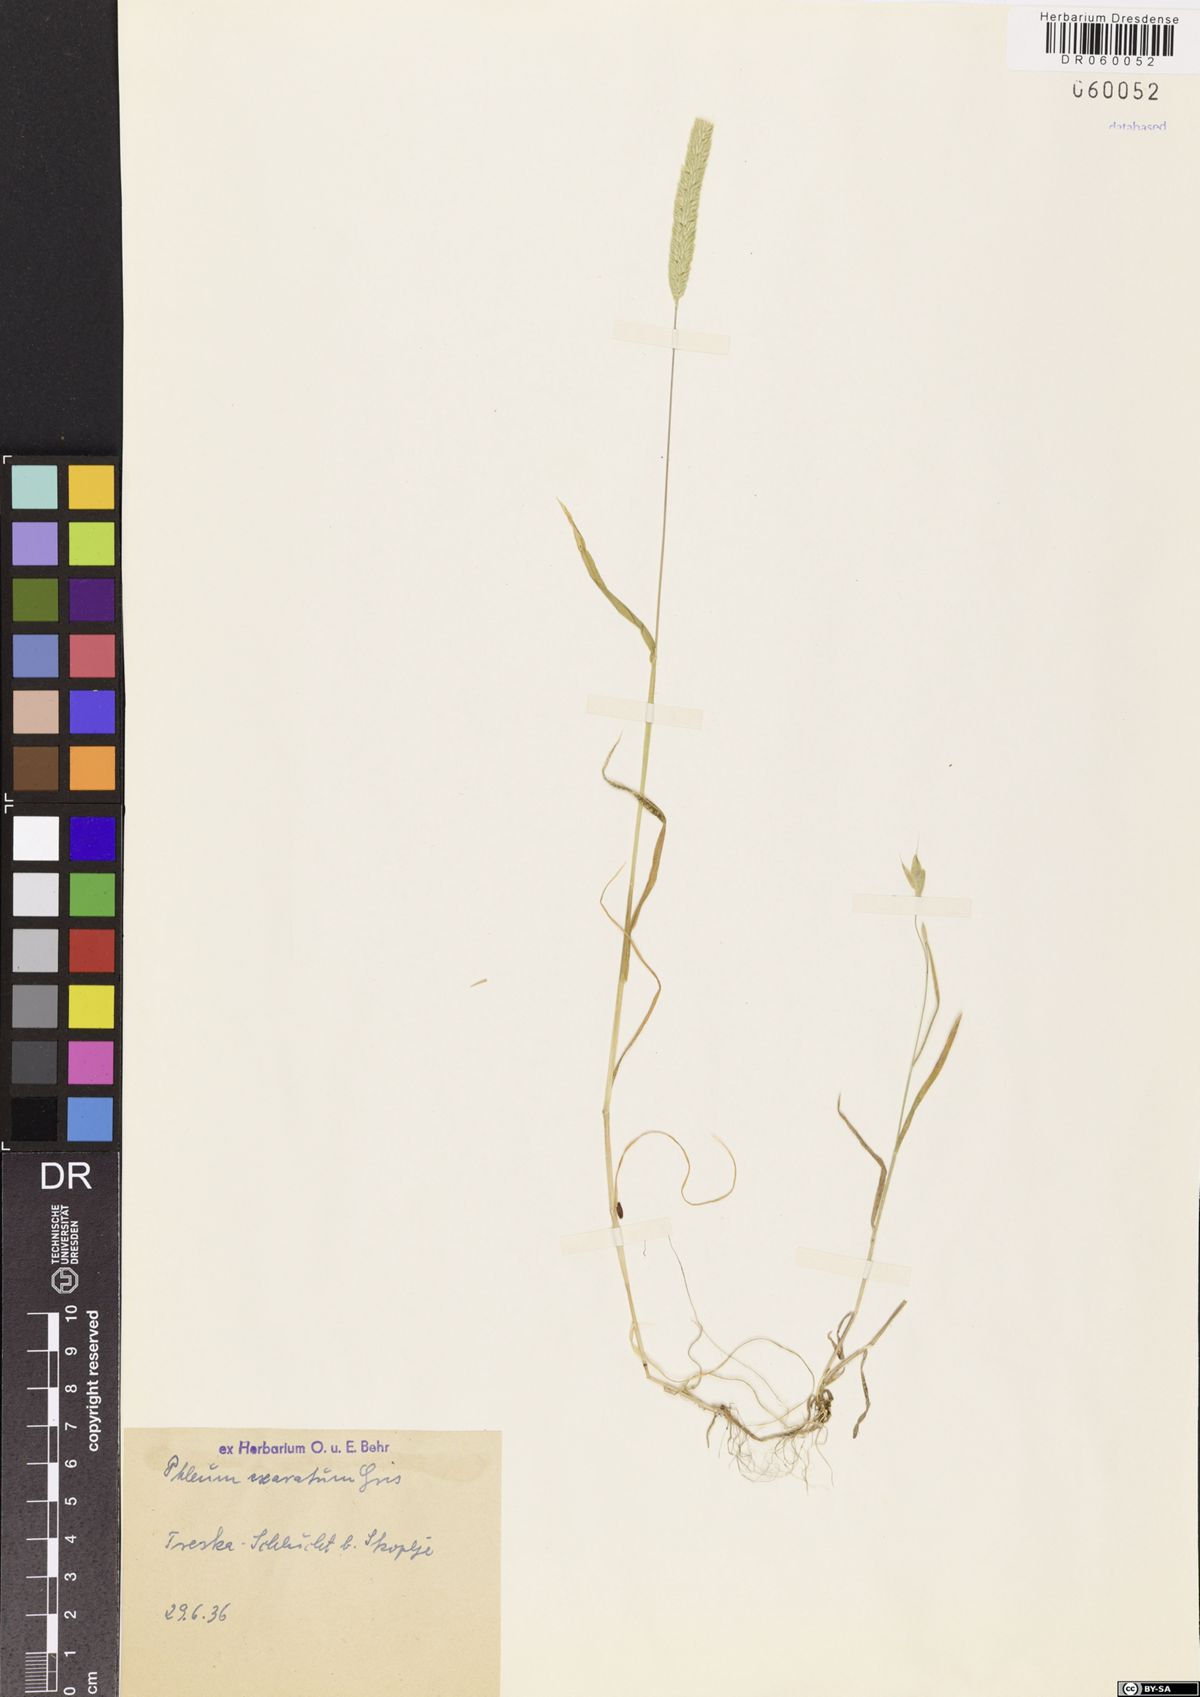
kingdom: Plantae
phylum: Tracheophyta
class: Liliopsida
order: Poales
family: Poaceae
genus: Phleum
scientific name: Phleum exaratum
